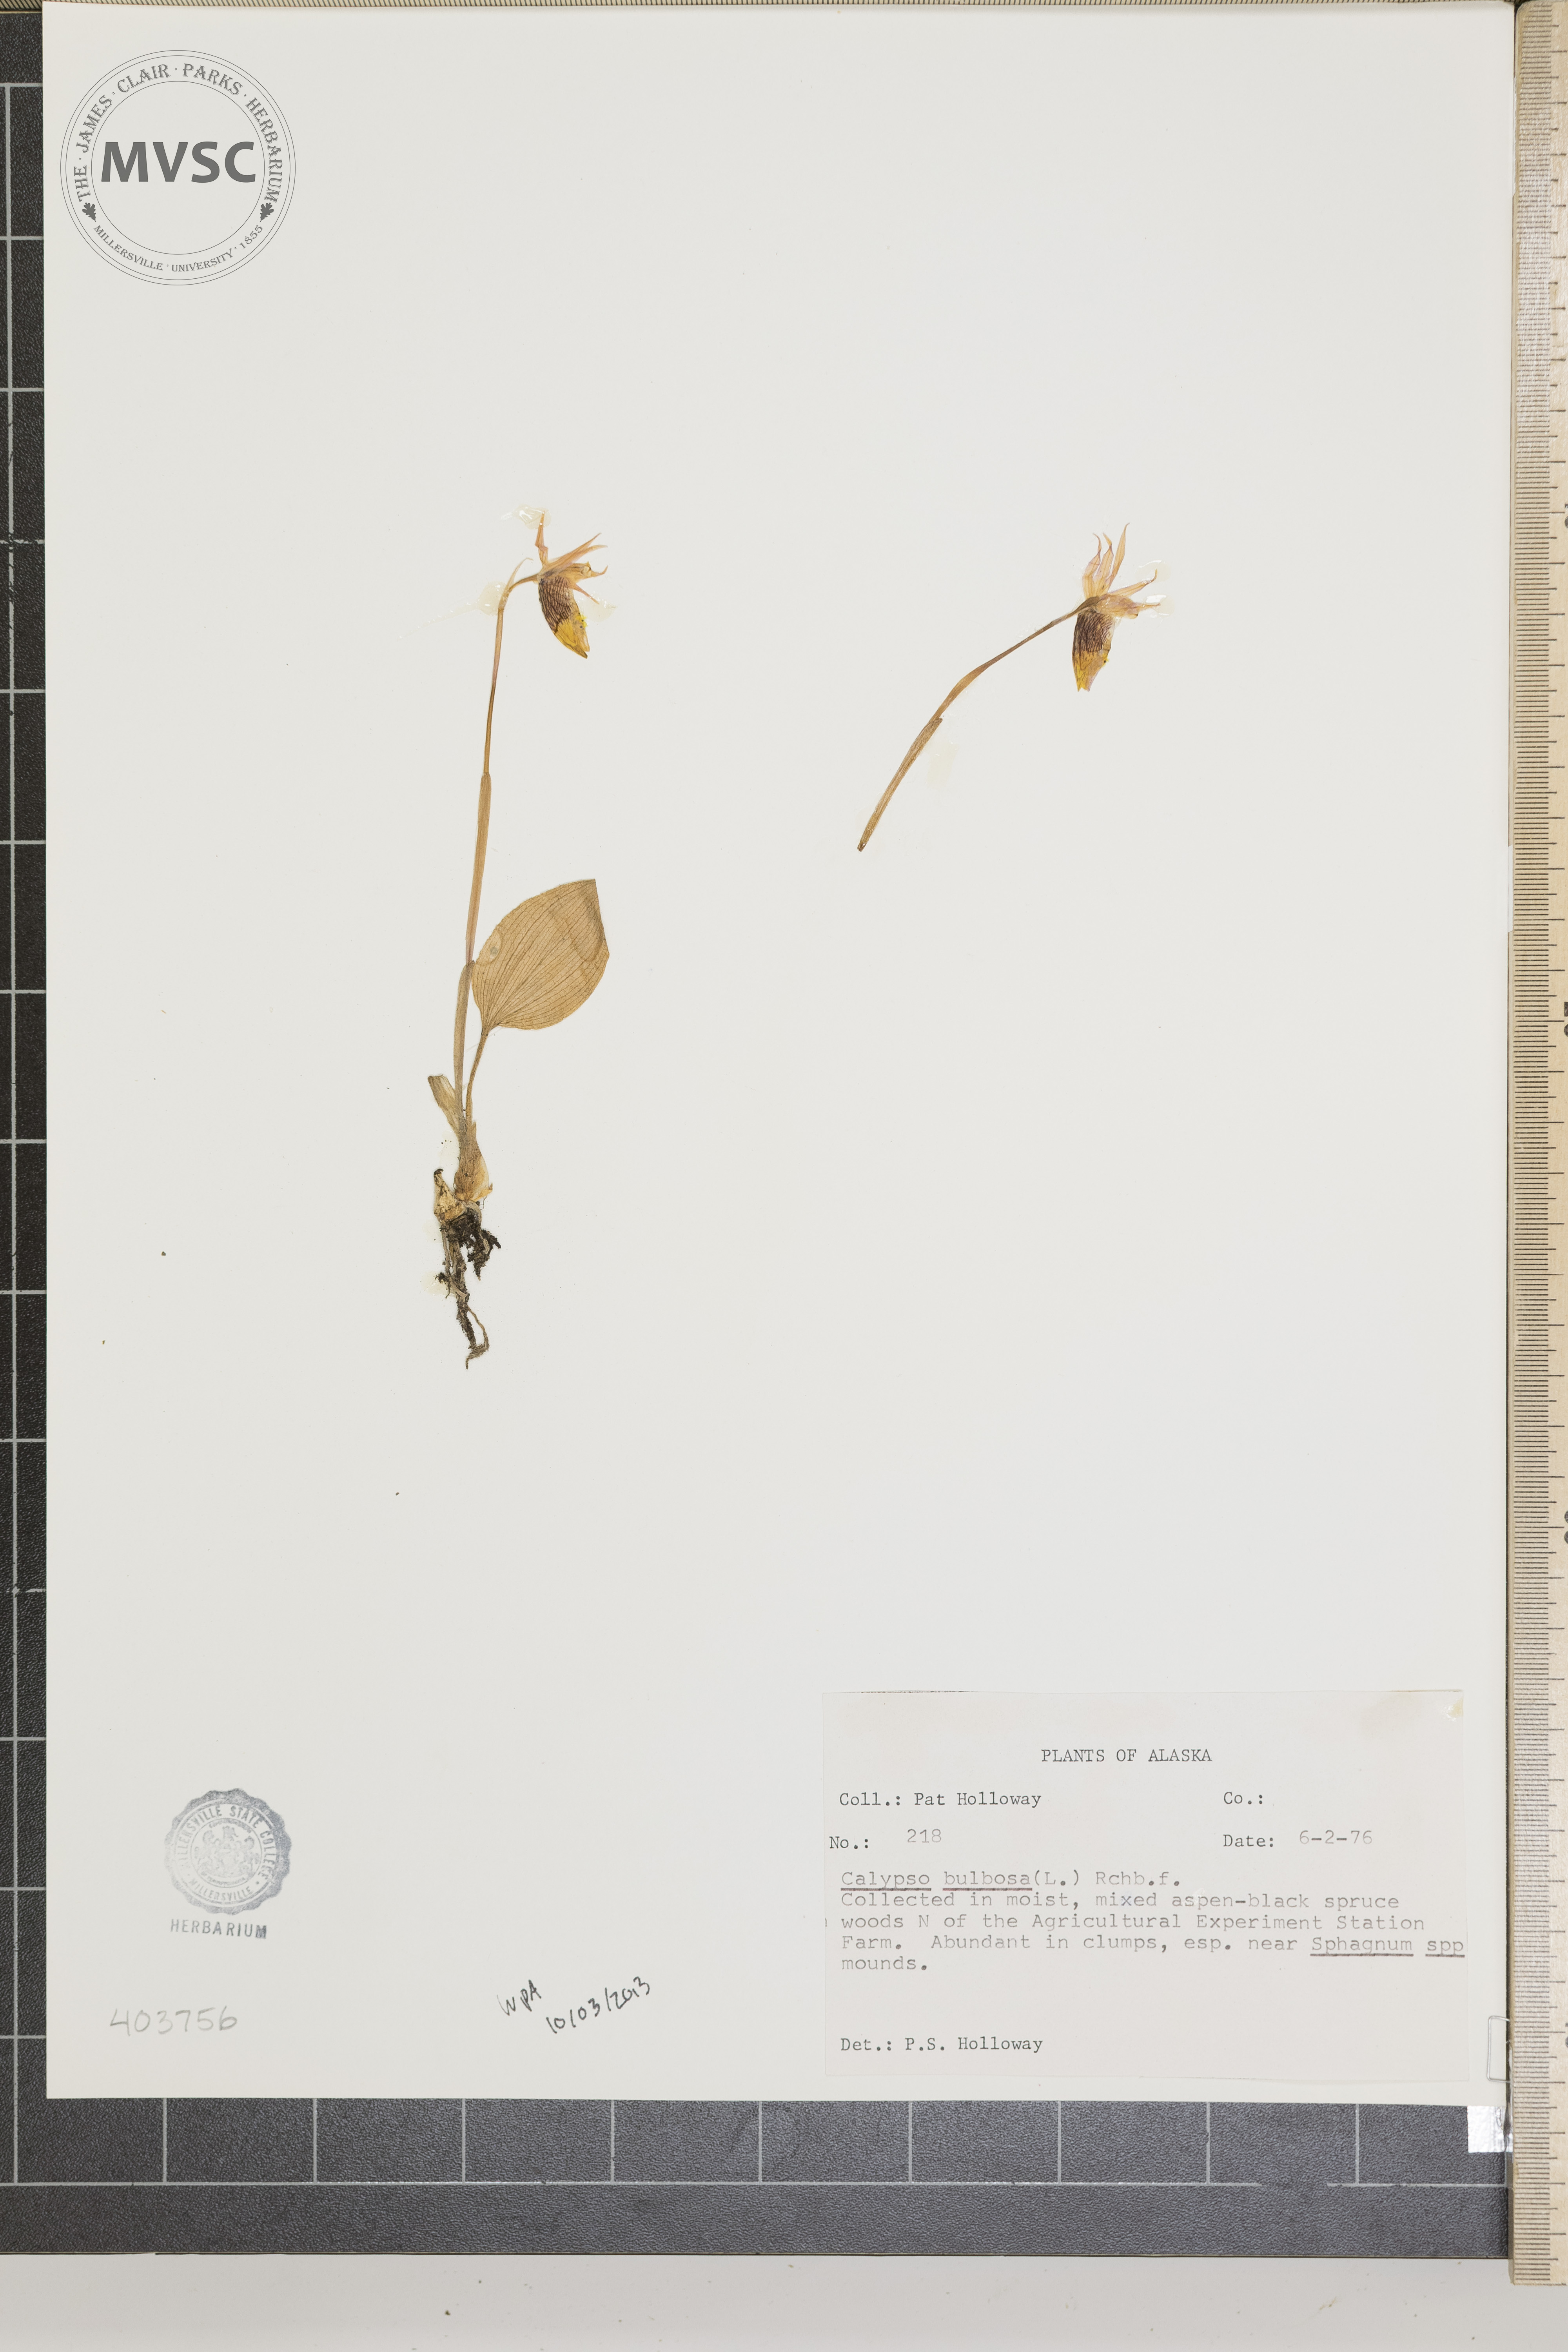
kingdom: Plantae
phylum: Tracheophyta
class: Liliopsida
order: Asparagales
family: Orchidaceae
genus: Calypso
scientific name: Calypso bulbosa
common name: Calypso
